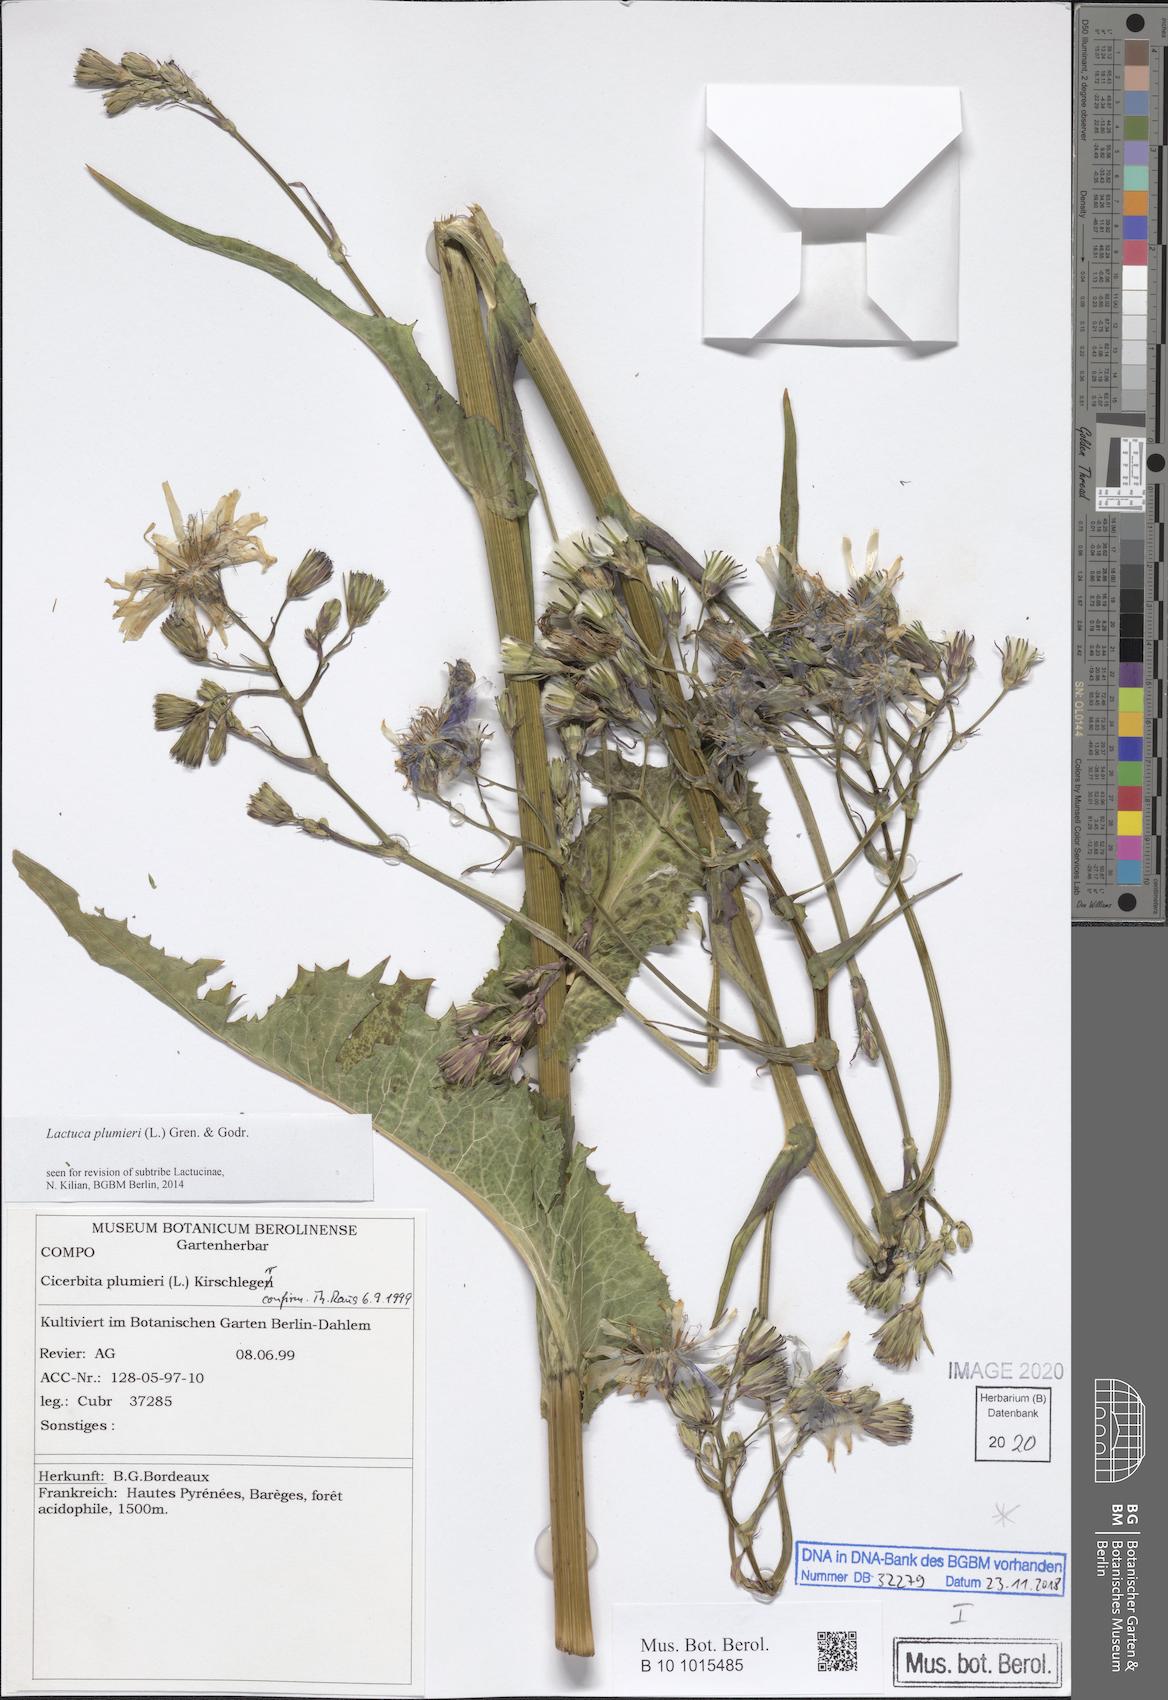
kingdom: Plantae
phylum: Tracheophyta
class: Magnoliopsida
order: Asterales
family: Asteraceae
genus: Lactuca
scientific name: Lactuca plumieri
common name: Hairless blue-sow-thistle
